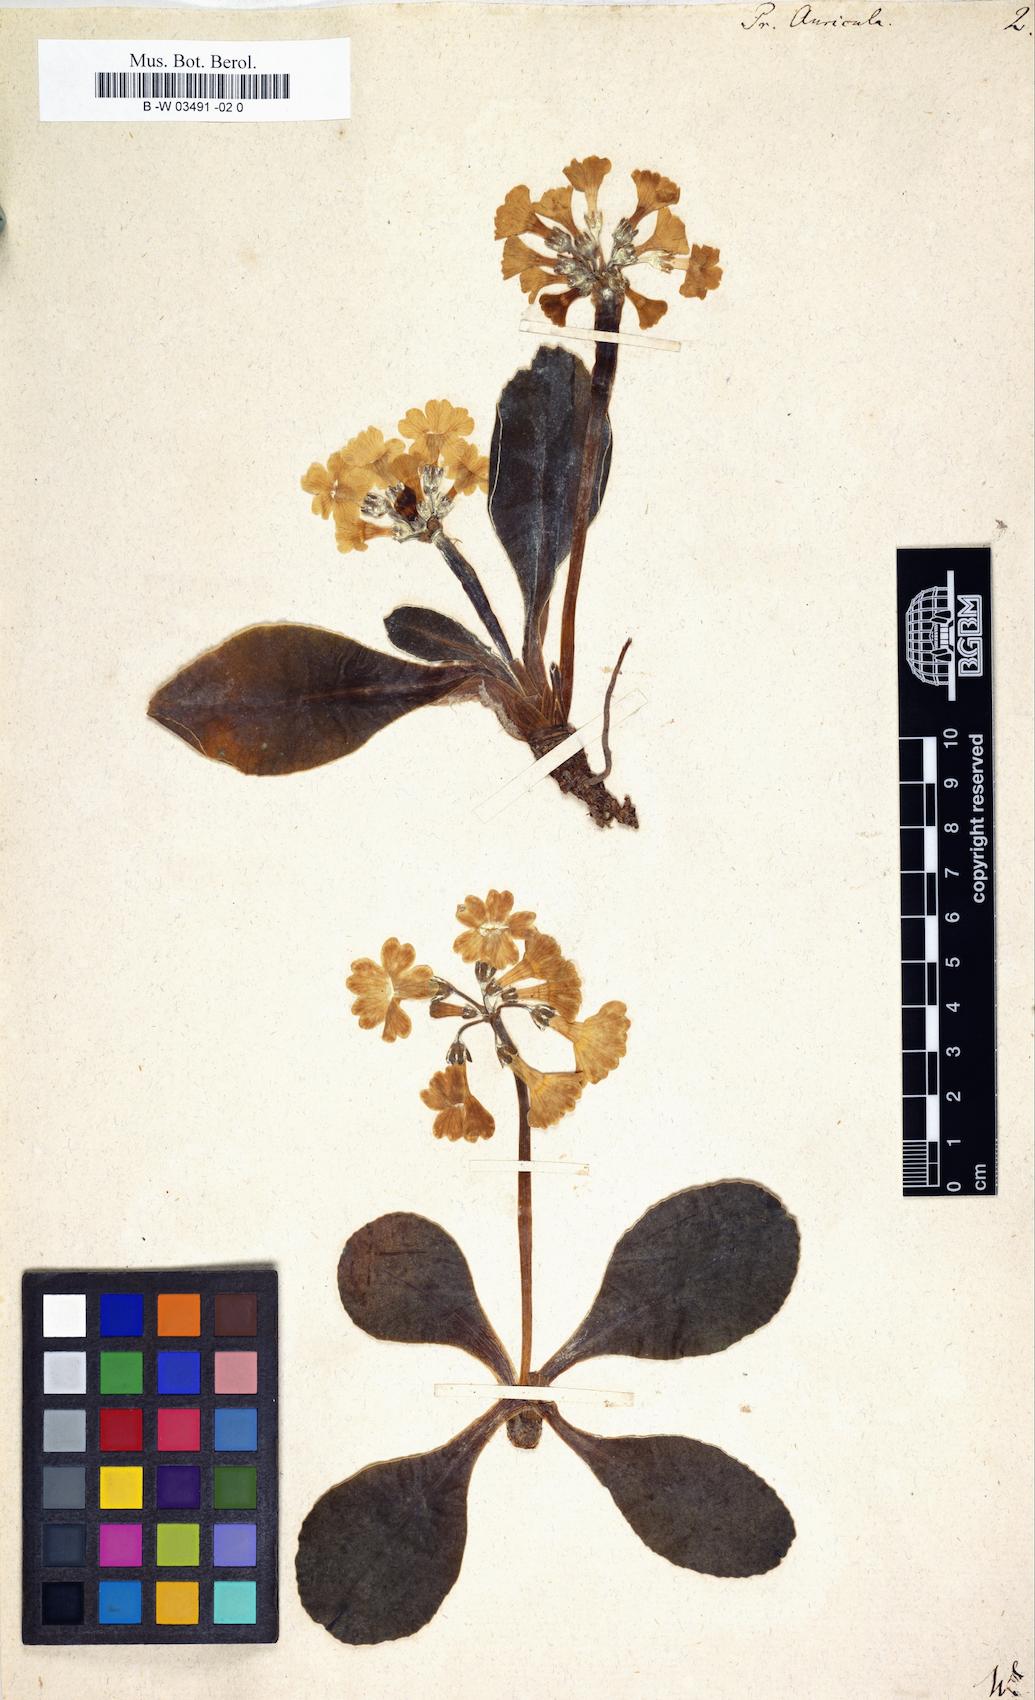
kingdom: Plantae
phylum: Tracheophyta
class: Magnoliopsida
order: Ericales
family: Primulaceae
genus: Primula
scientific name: Primula auricula
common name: Auricula
